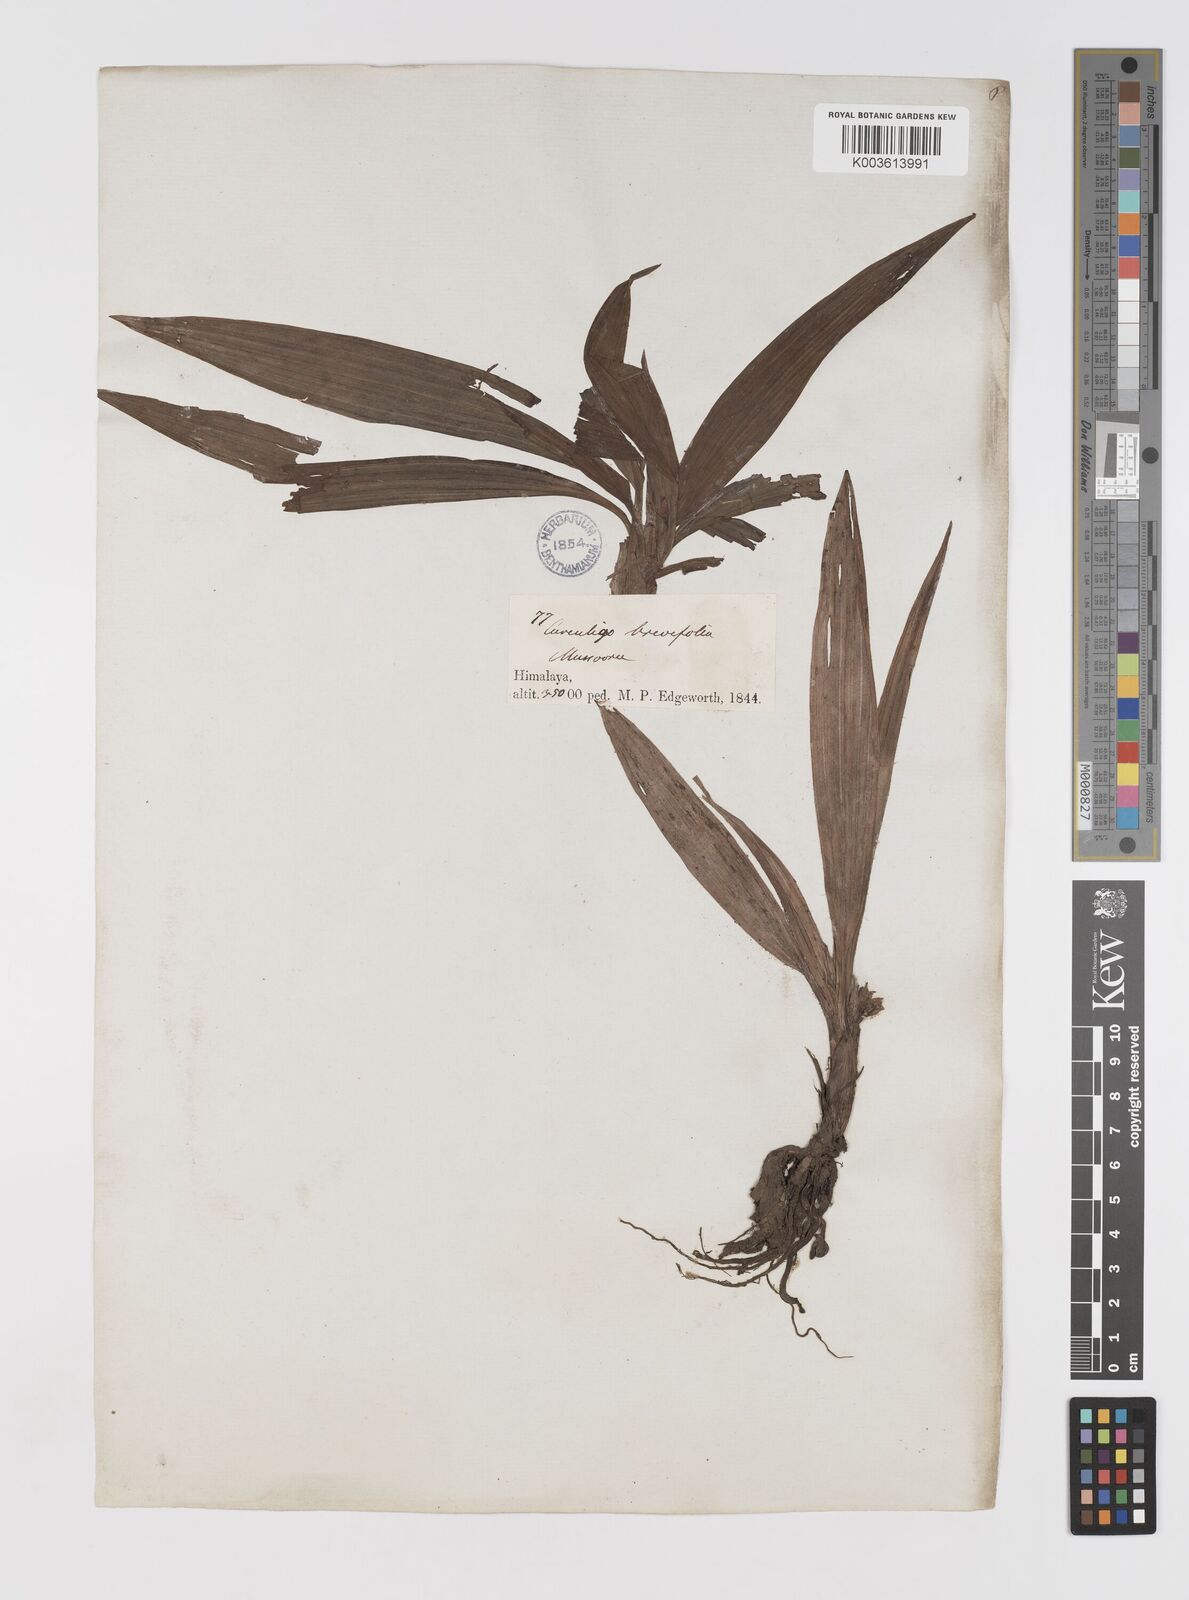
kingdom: Plantae
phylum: Tracheophyta
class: Liliopsida
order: Asparagales
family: Hypoxidaceae
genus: Curculigo
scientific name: Curculigo ensifolia
